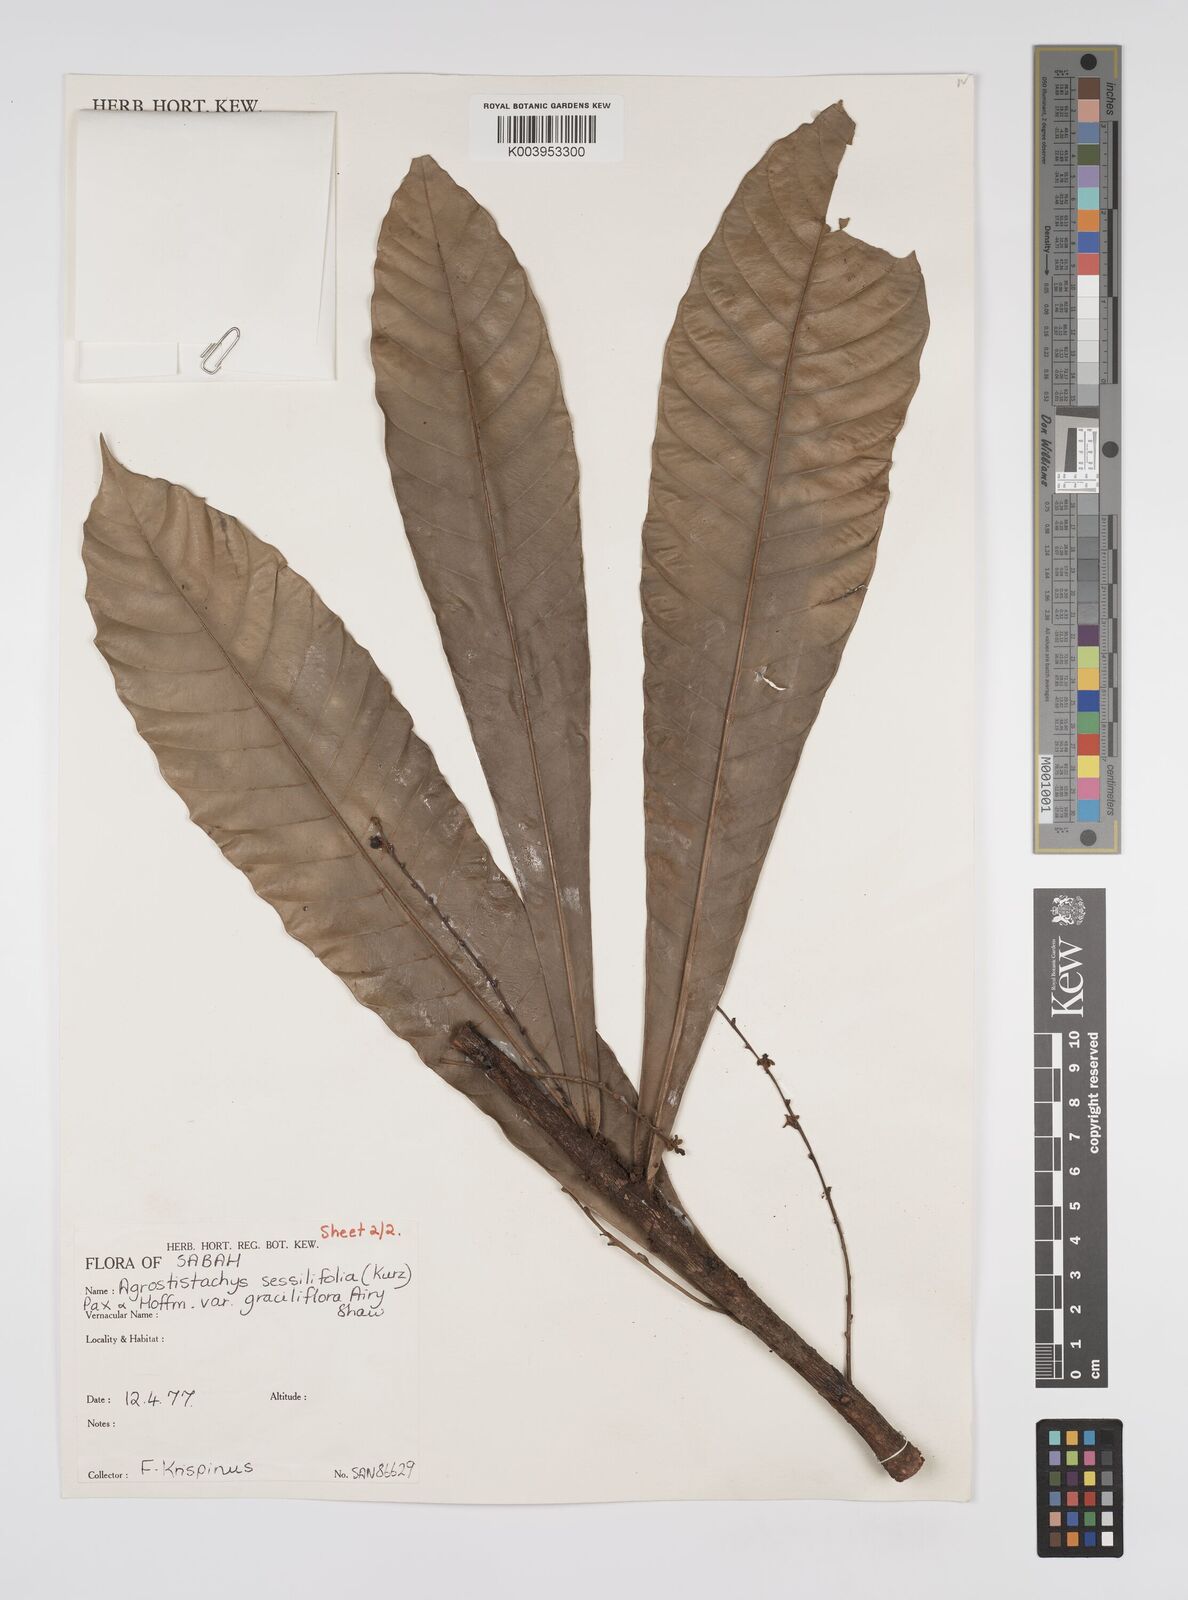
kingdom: Plantae
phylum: Tracheophyta
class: Magnoliopsida
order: Malpighiales
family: Euphorbiaceae
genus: Agrostistachys
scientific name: Agrostistachys
